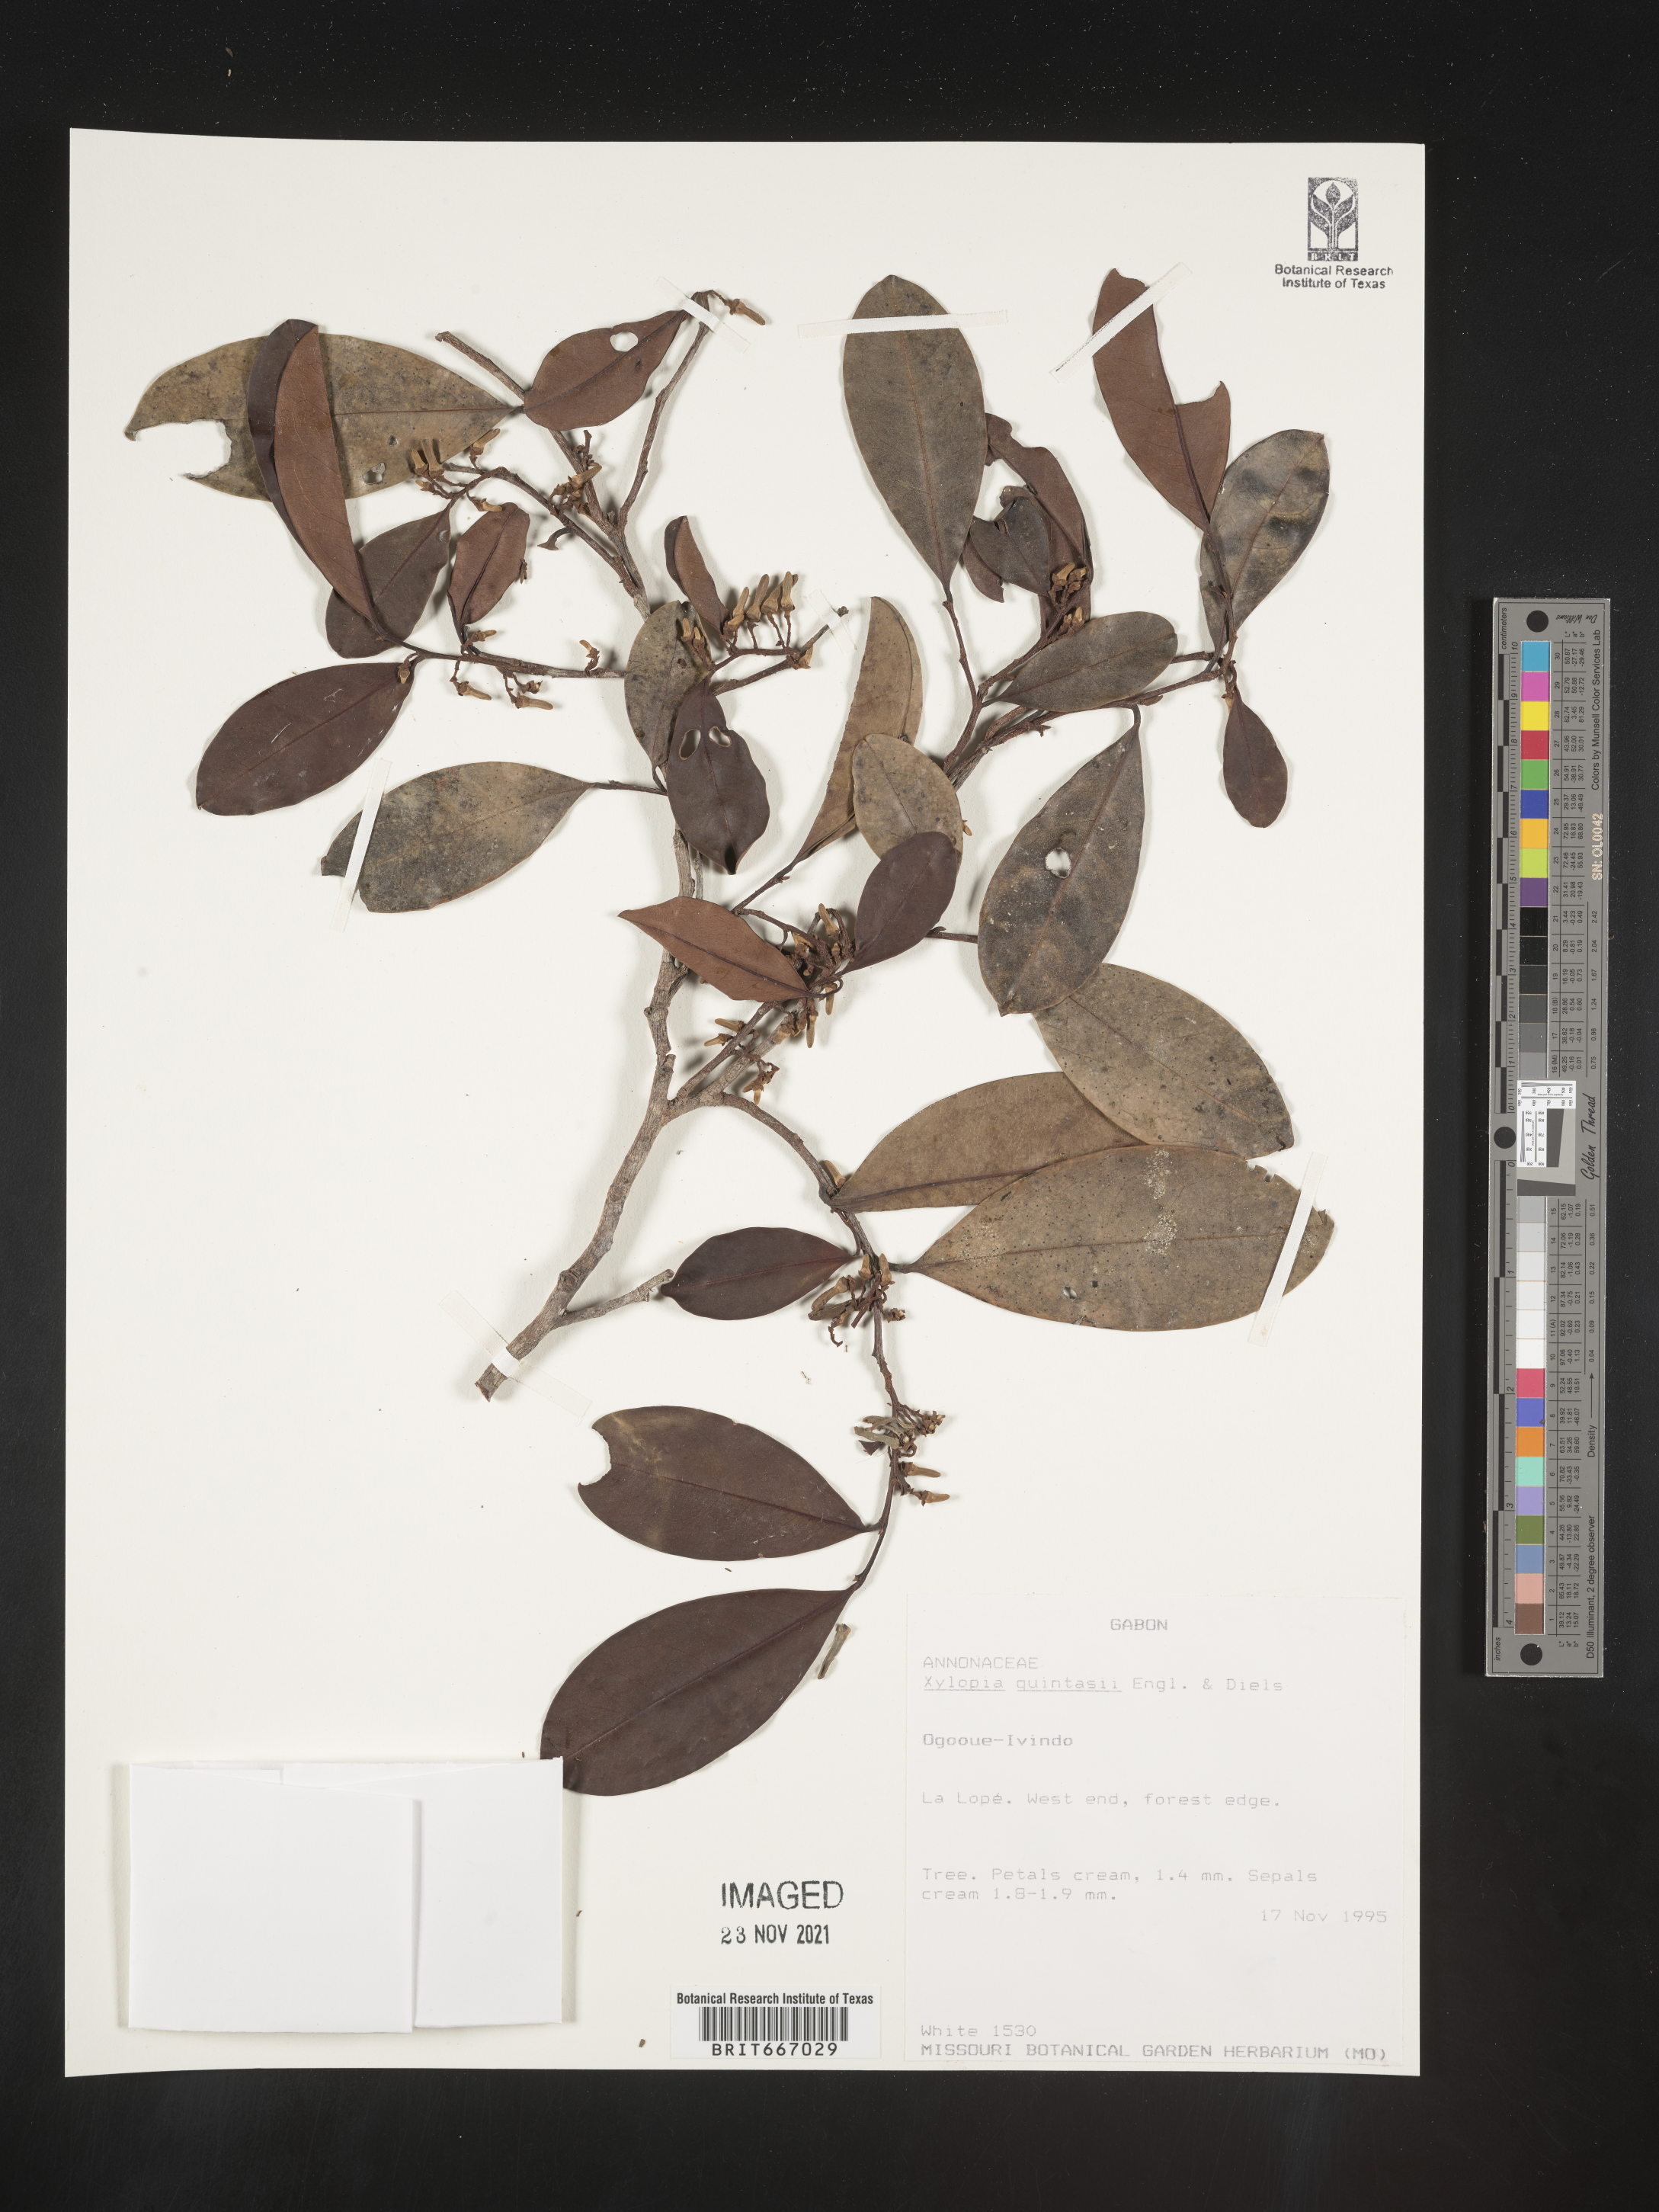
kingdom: Plantae
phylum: Tracheophyta
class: Magnoliopsida
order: Magnoliales
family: Annonaceae
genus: Xylopia
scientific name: Xylopia
